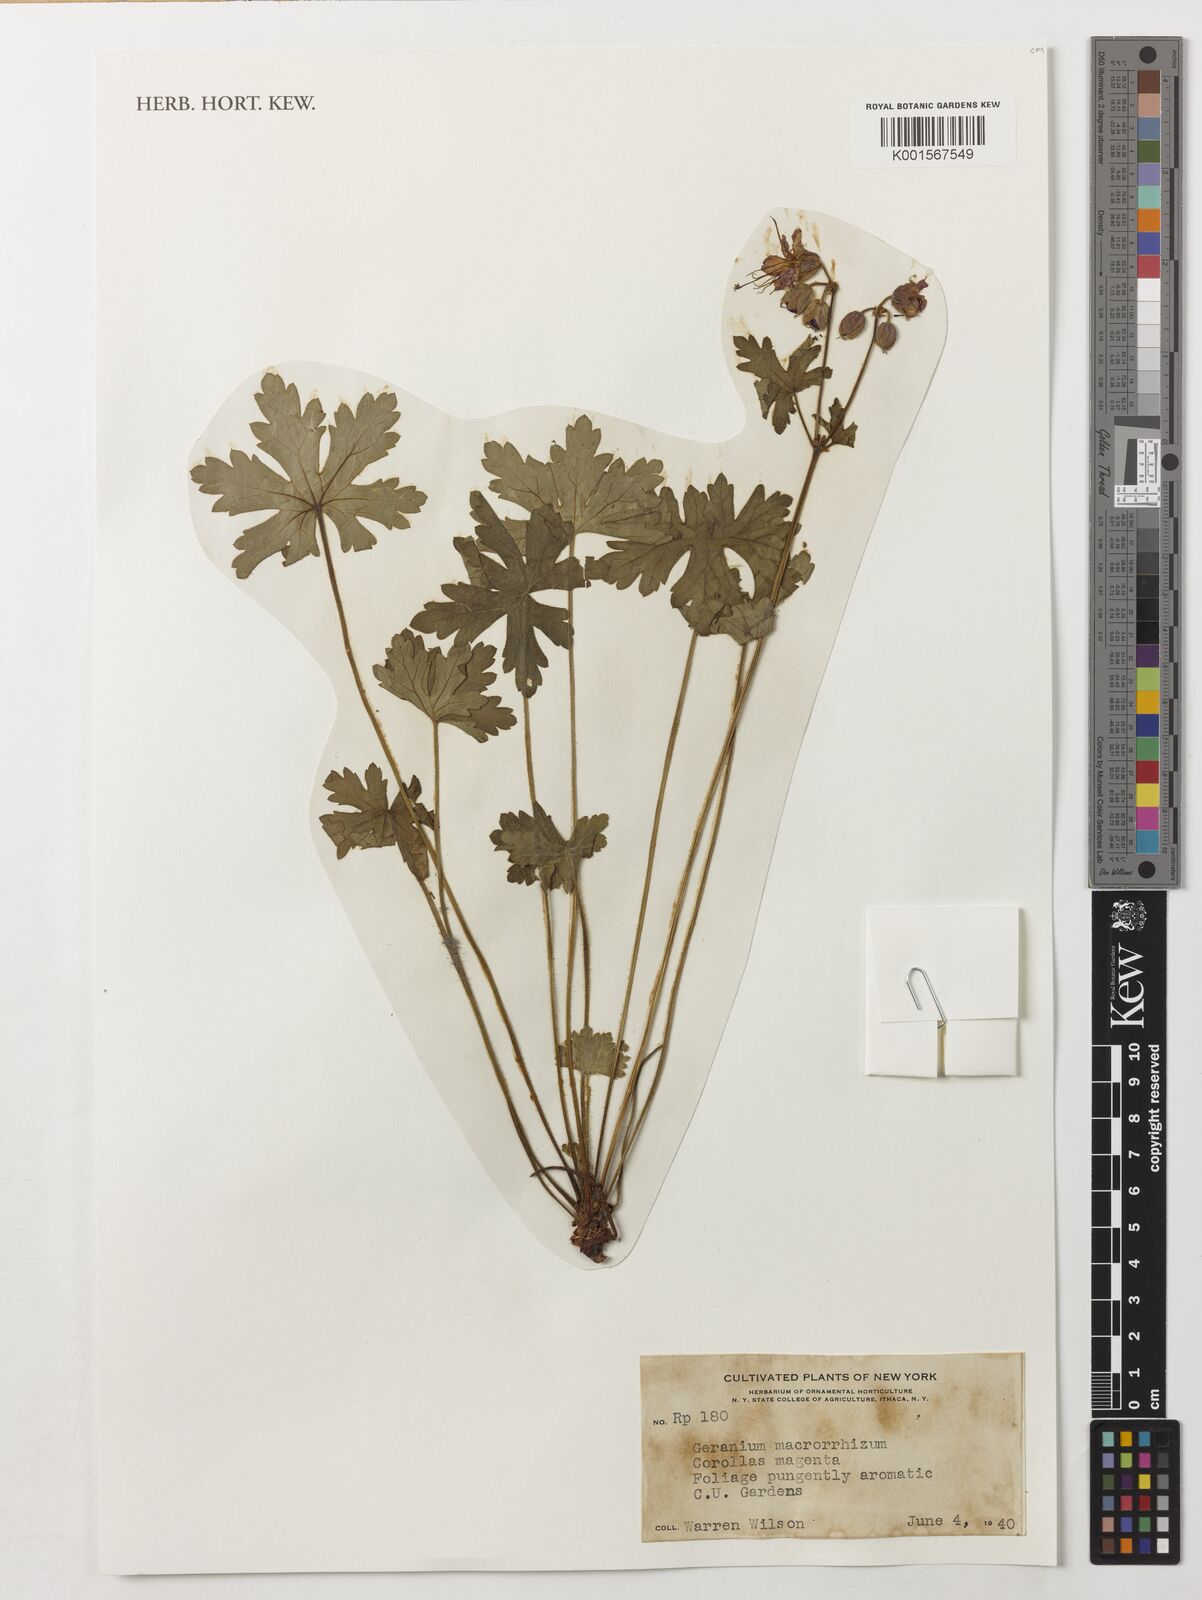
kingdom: Plantae
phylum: Tracheophyta
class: Magnoliopsida
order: Geraniales
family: Geraniaceae
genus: Geranium
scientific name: Geranium macrorrhizum
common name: Rock crane's-bill
